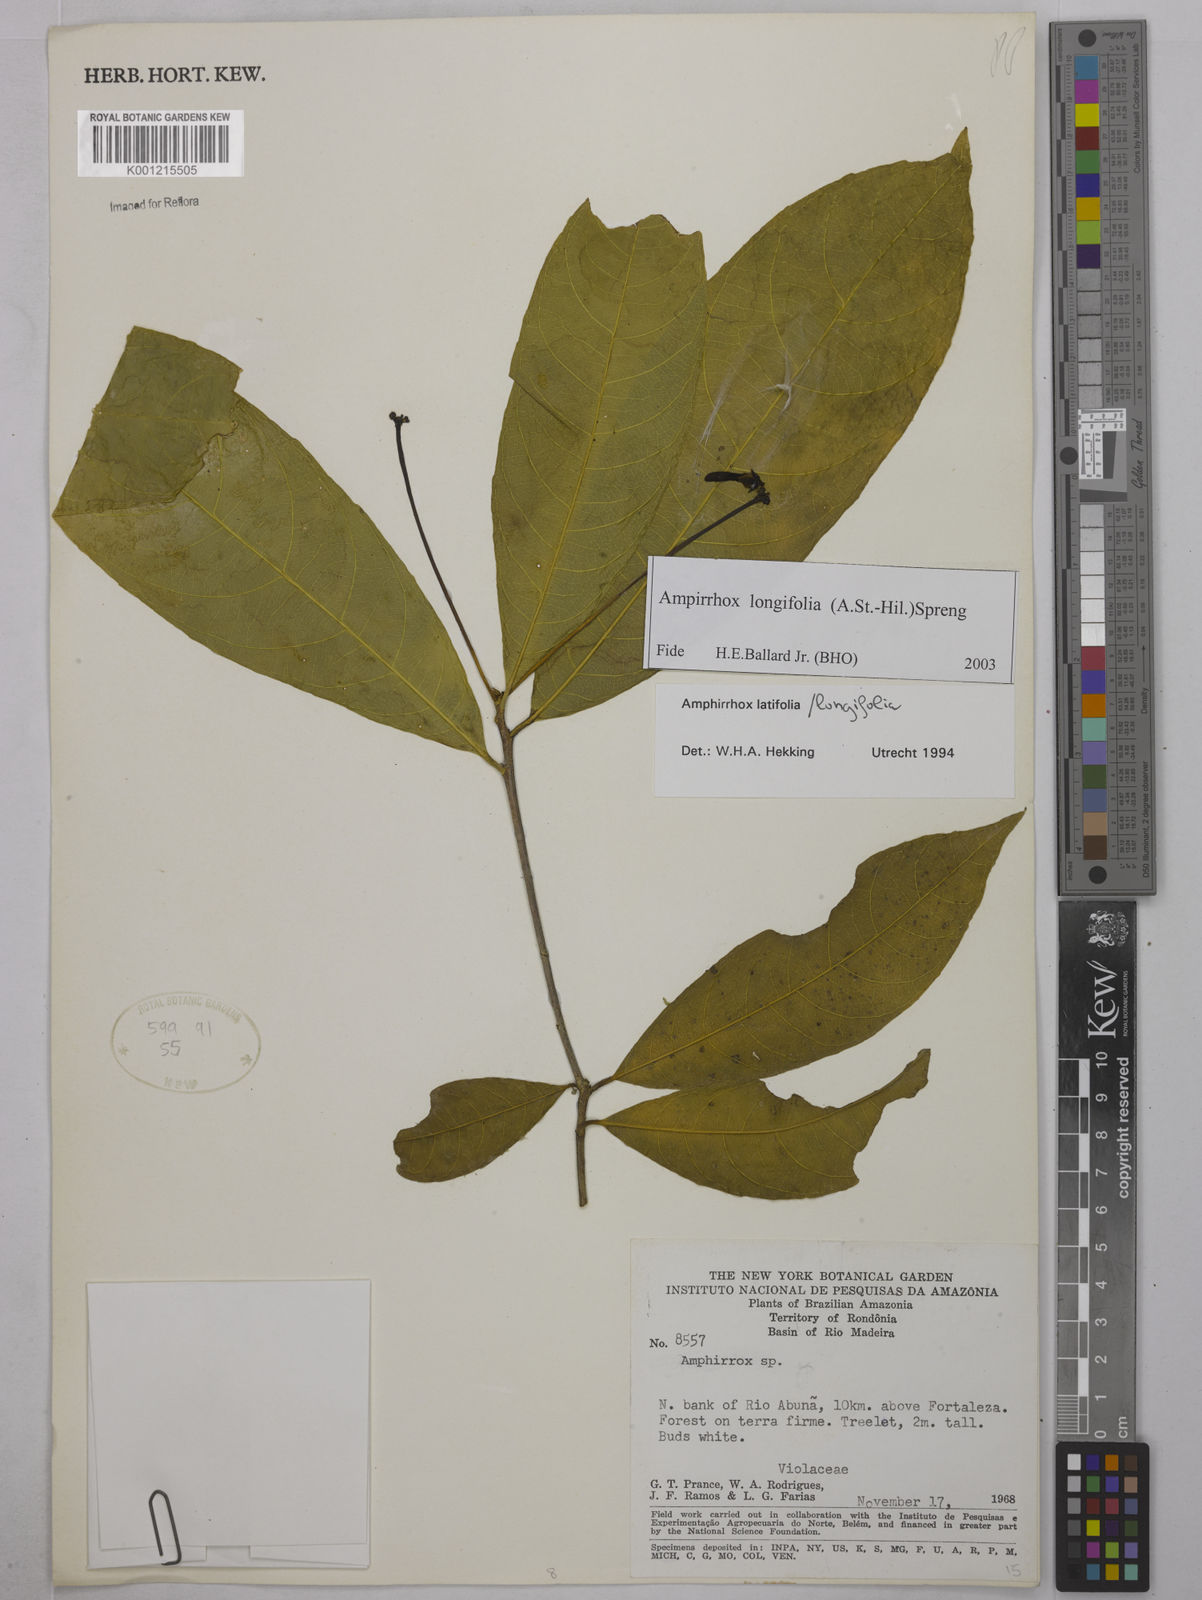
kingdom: Plantae
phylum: Tracheophyta
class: Magnoliopsida
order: Malpighiales
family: Violaceae
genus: Amphirrhox
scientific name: Amphirrhox longifolia
